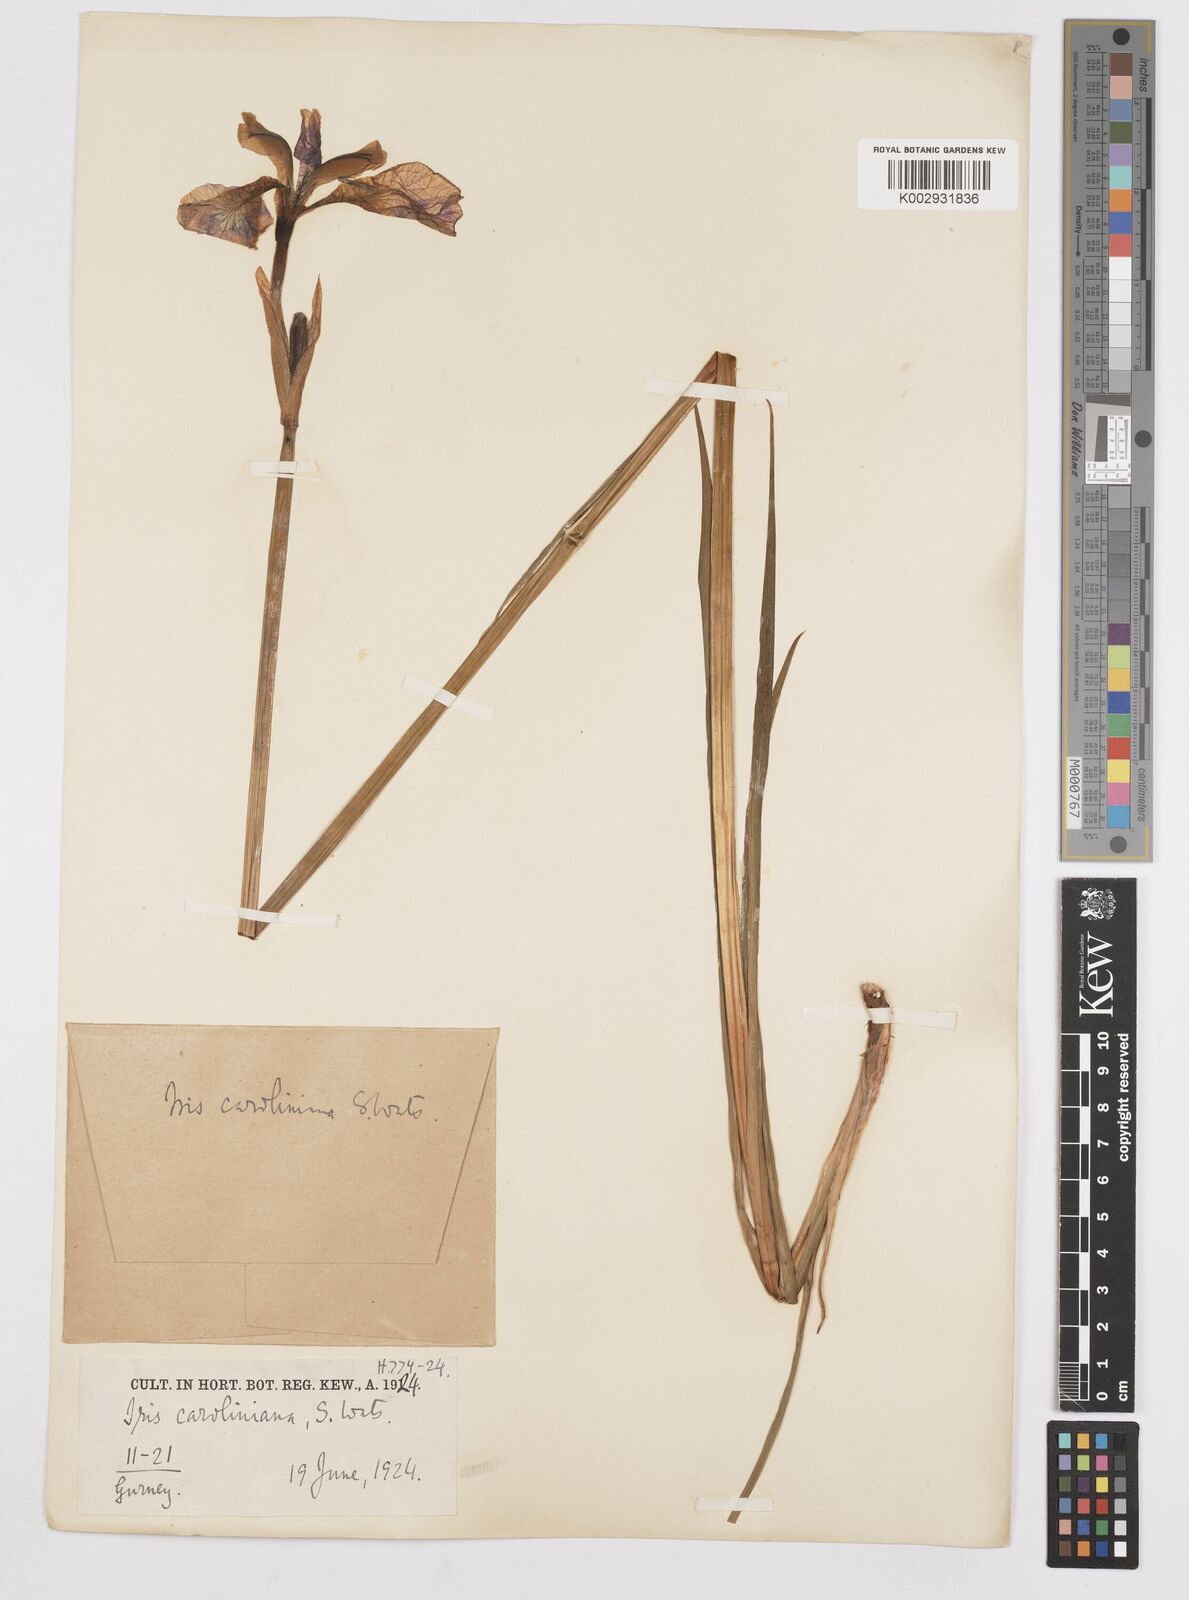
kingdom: Plantae
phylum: Tracheophyta
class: Liliopsida
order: Asparagales
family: Iridaceae
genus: Iris
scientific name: Iris virginica
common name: Southern blue flag
